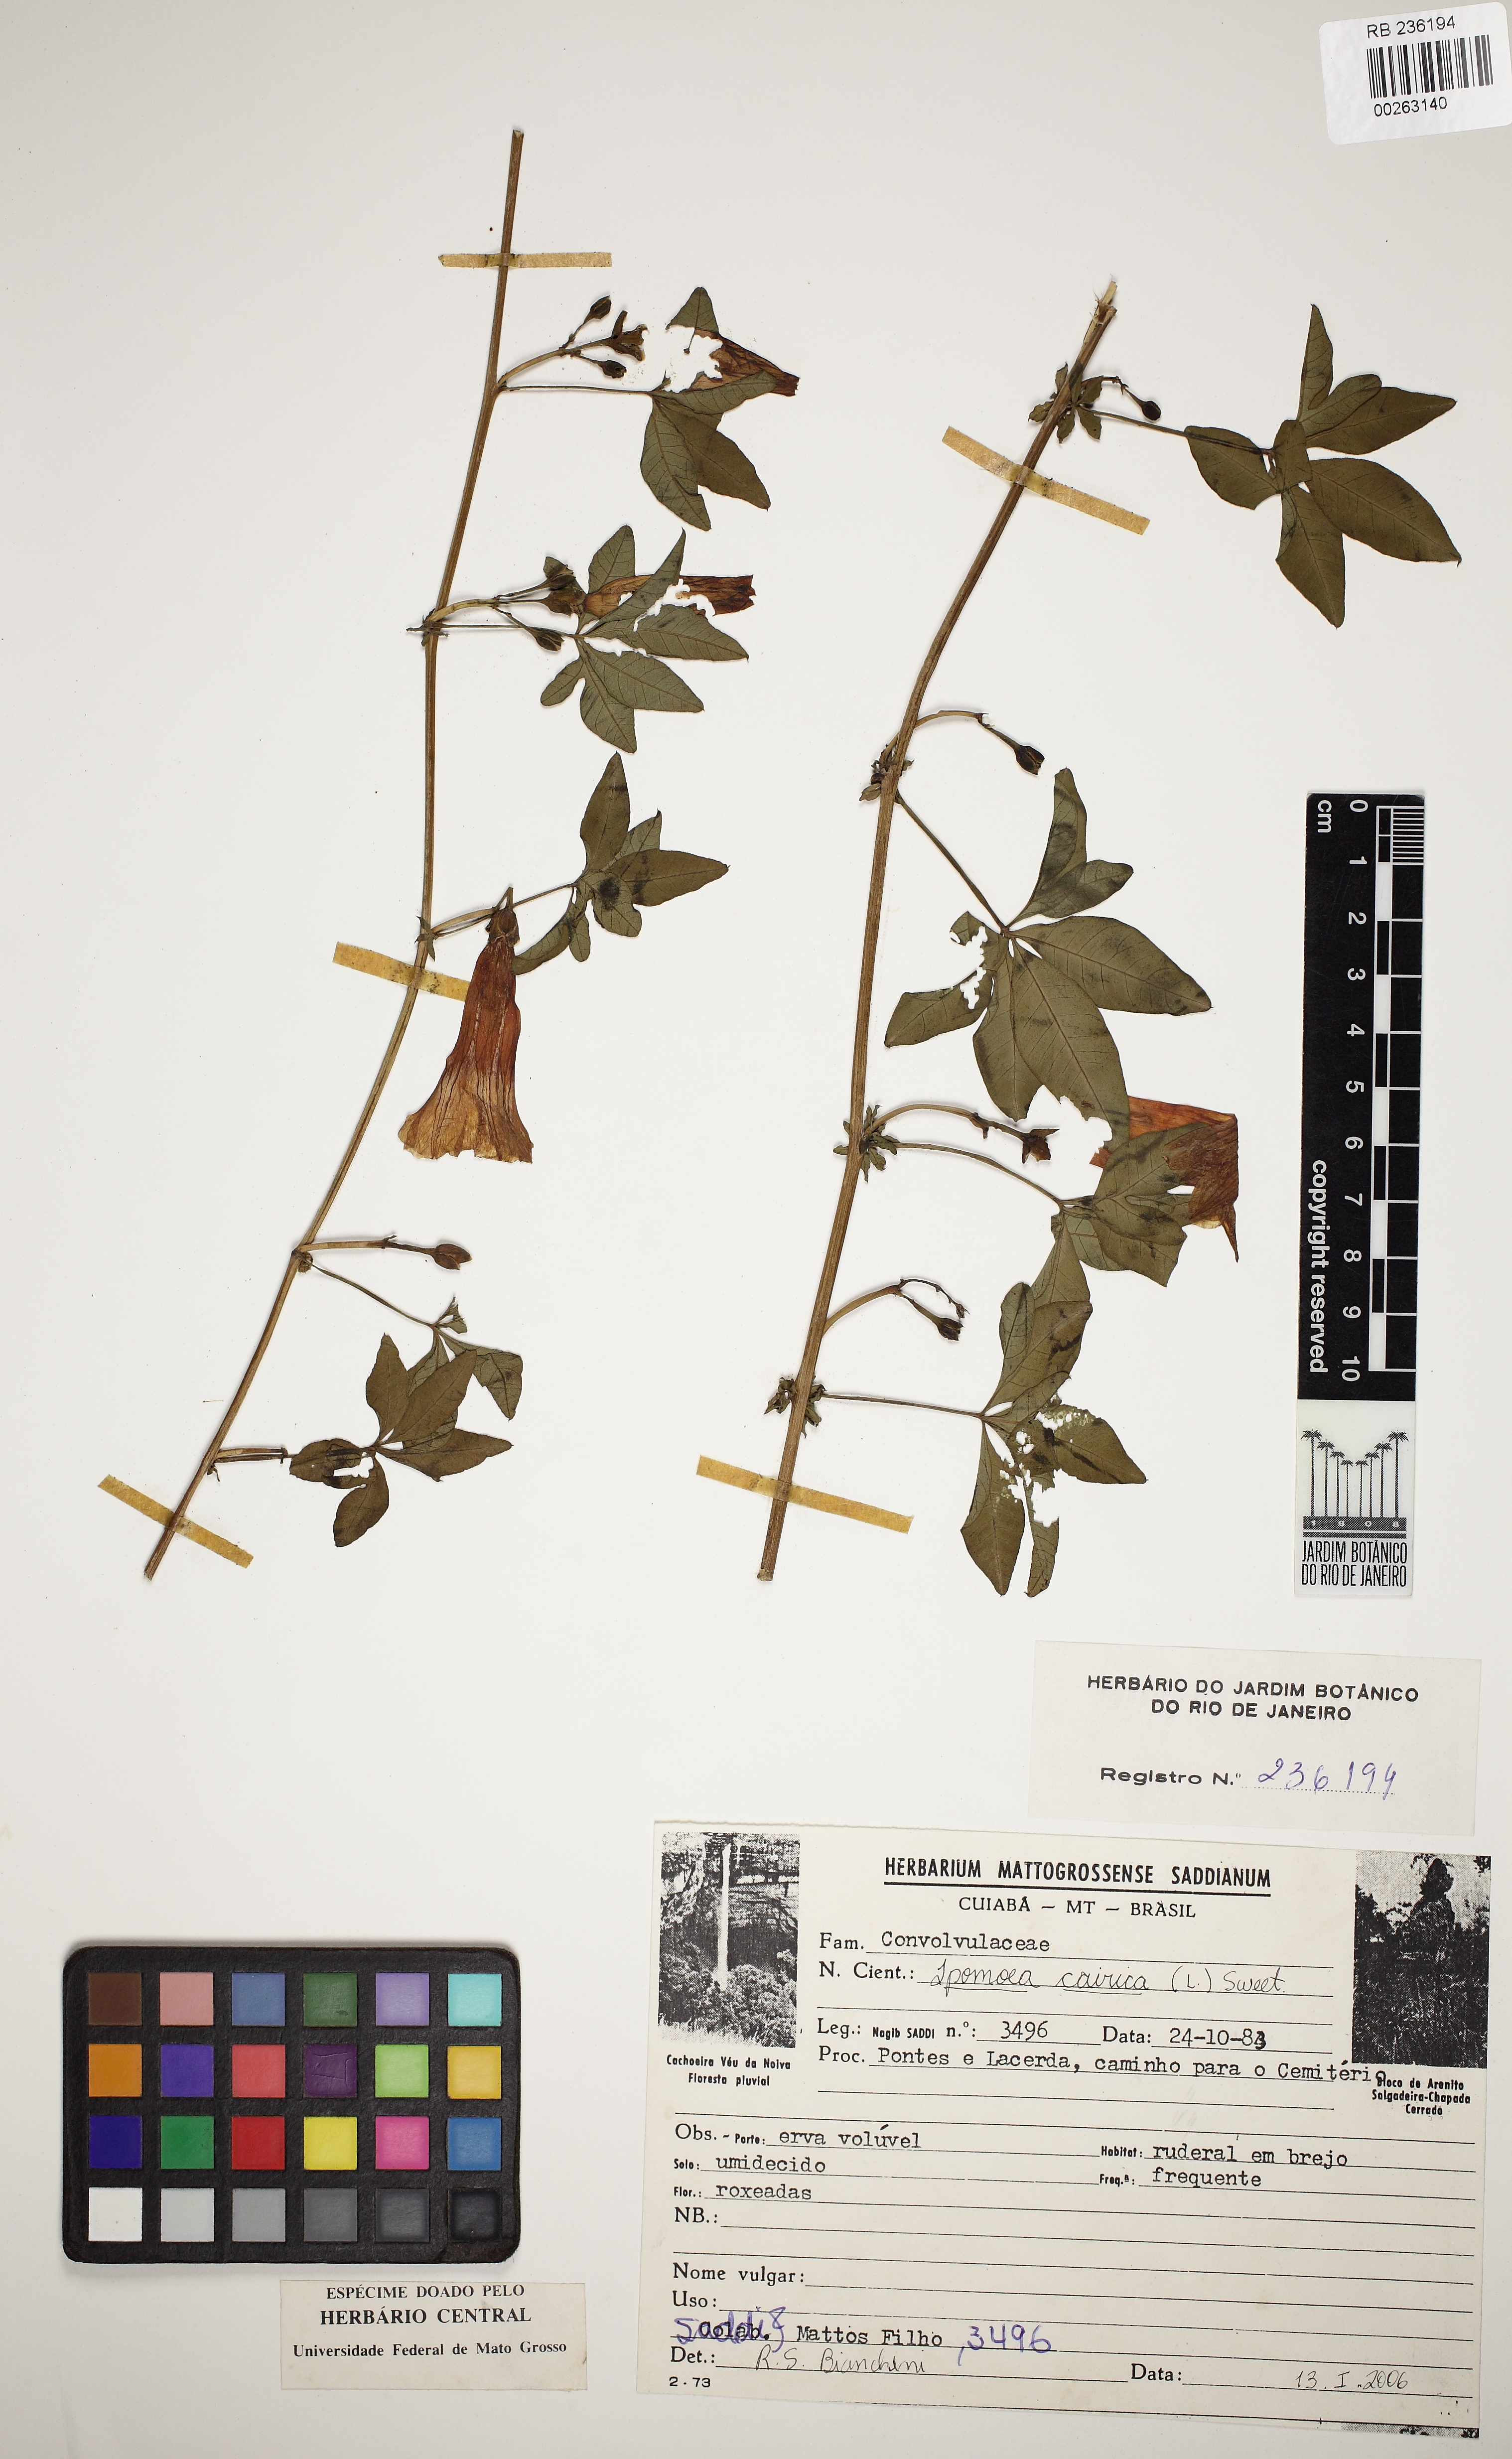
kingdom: Plantae
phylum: Tracheophyta
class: Magnoliopsida
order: Solanales
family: Convolvulaceae
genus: Ipomoea
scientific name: Ipomoea cairica
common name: Mile a minute vine
